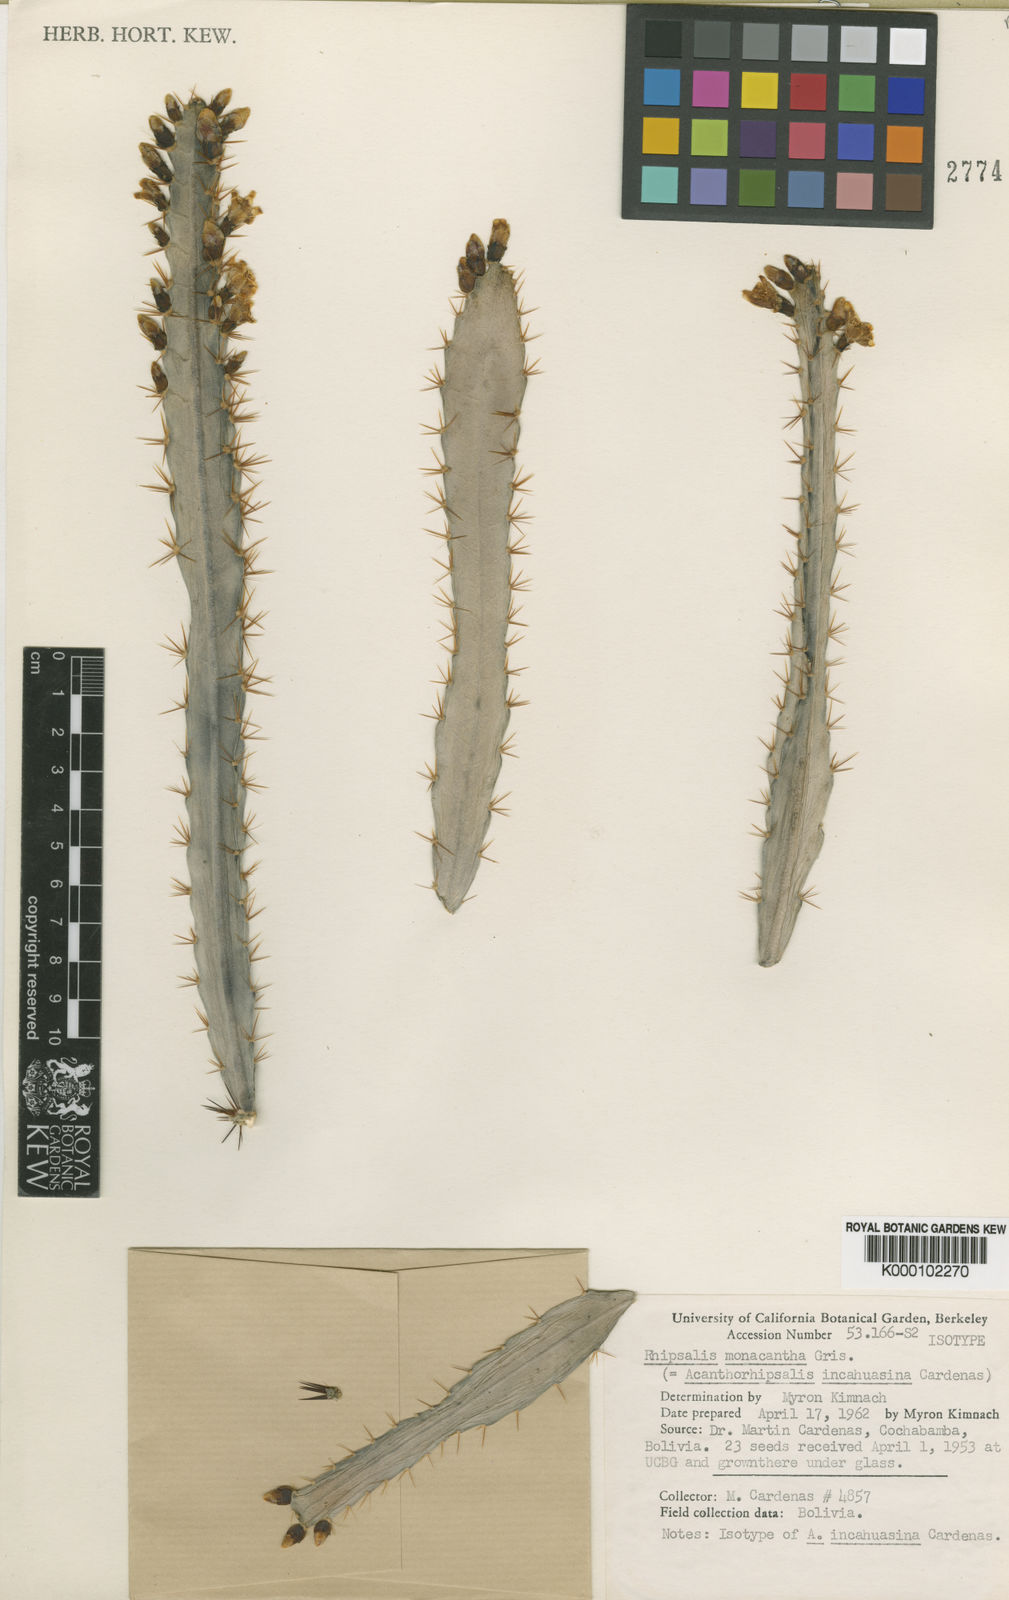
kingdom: Plantae
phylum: Tracheophyta
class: Magnoliopsida
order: Caryophyllales
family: Cactaceae
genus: Pfeiffera
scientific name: Pfeiffera monacantha
